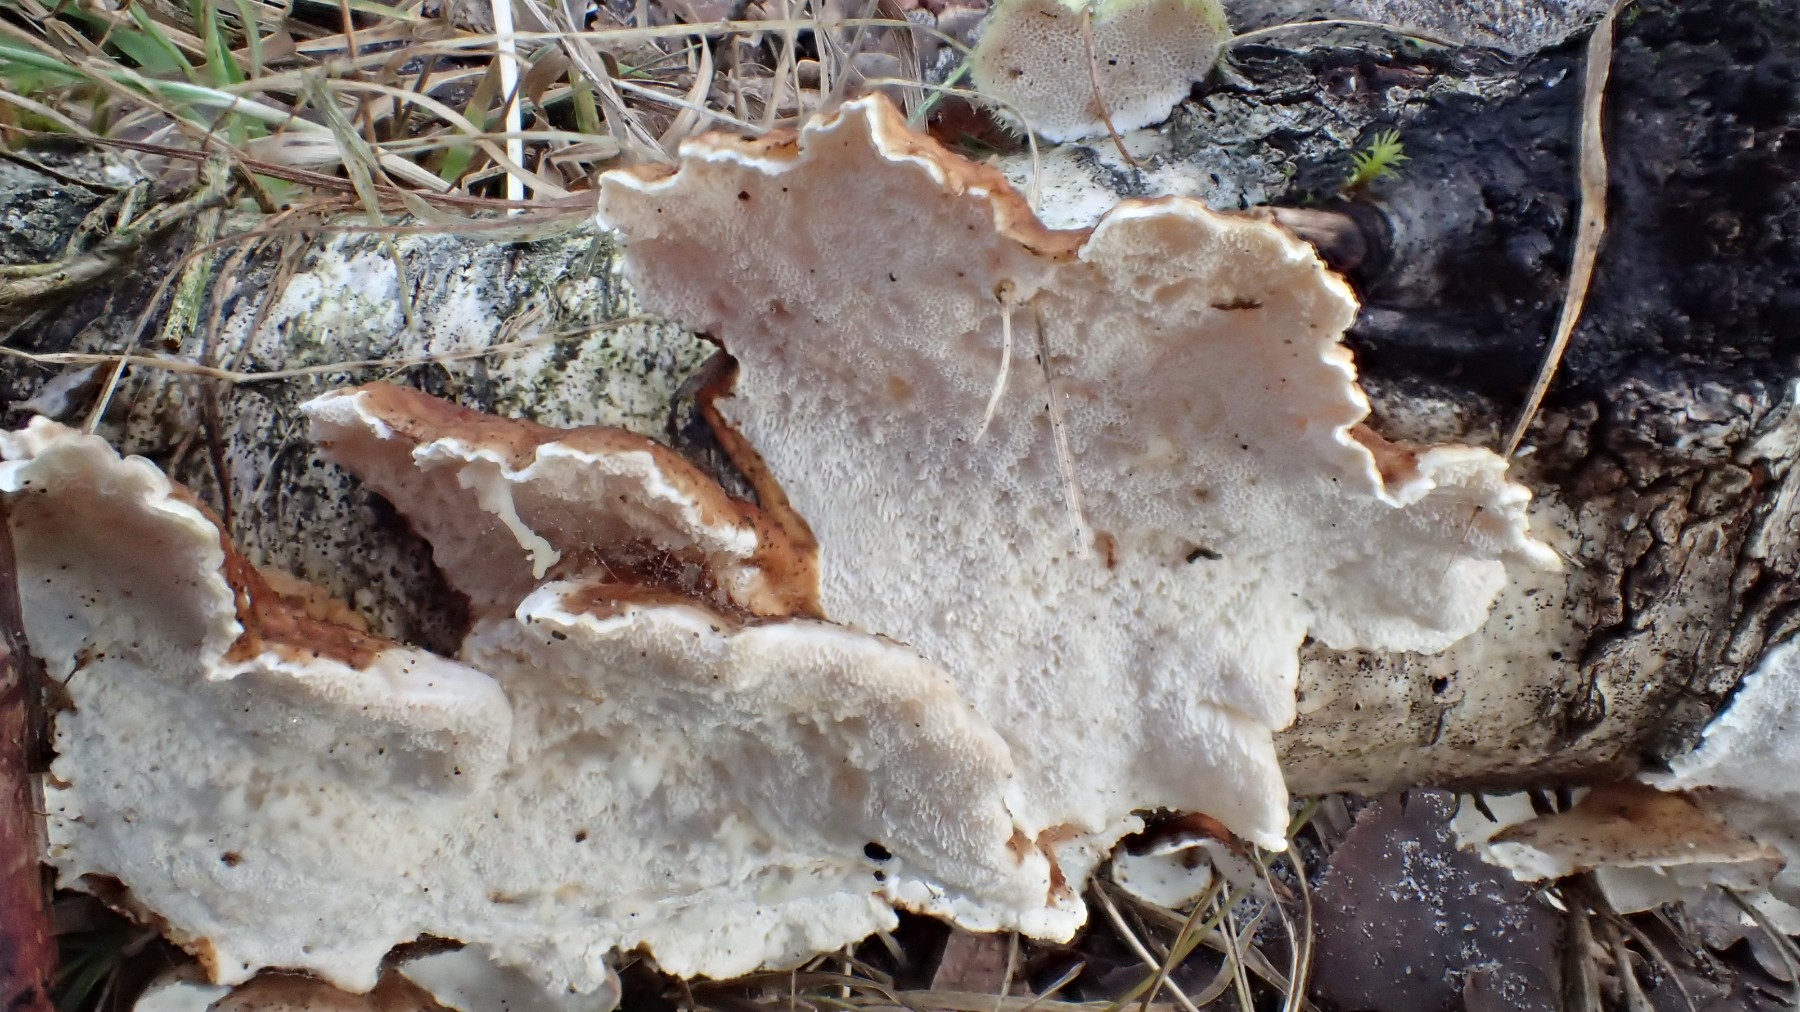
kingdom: Fungi
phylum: Basidiomycota
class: Agaricomycetes
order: Polyporales
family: Polyporaceae
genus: Trametes
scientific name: Trametes ochracea
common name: bæltet læderporesvamp
